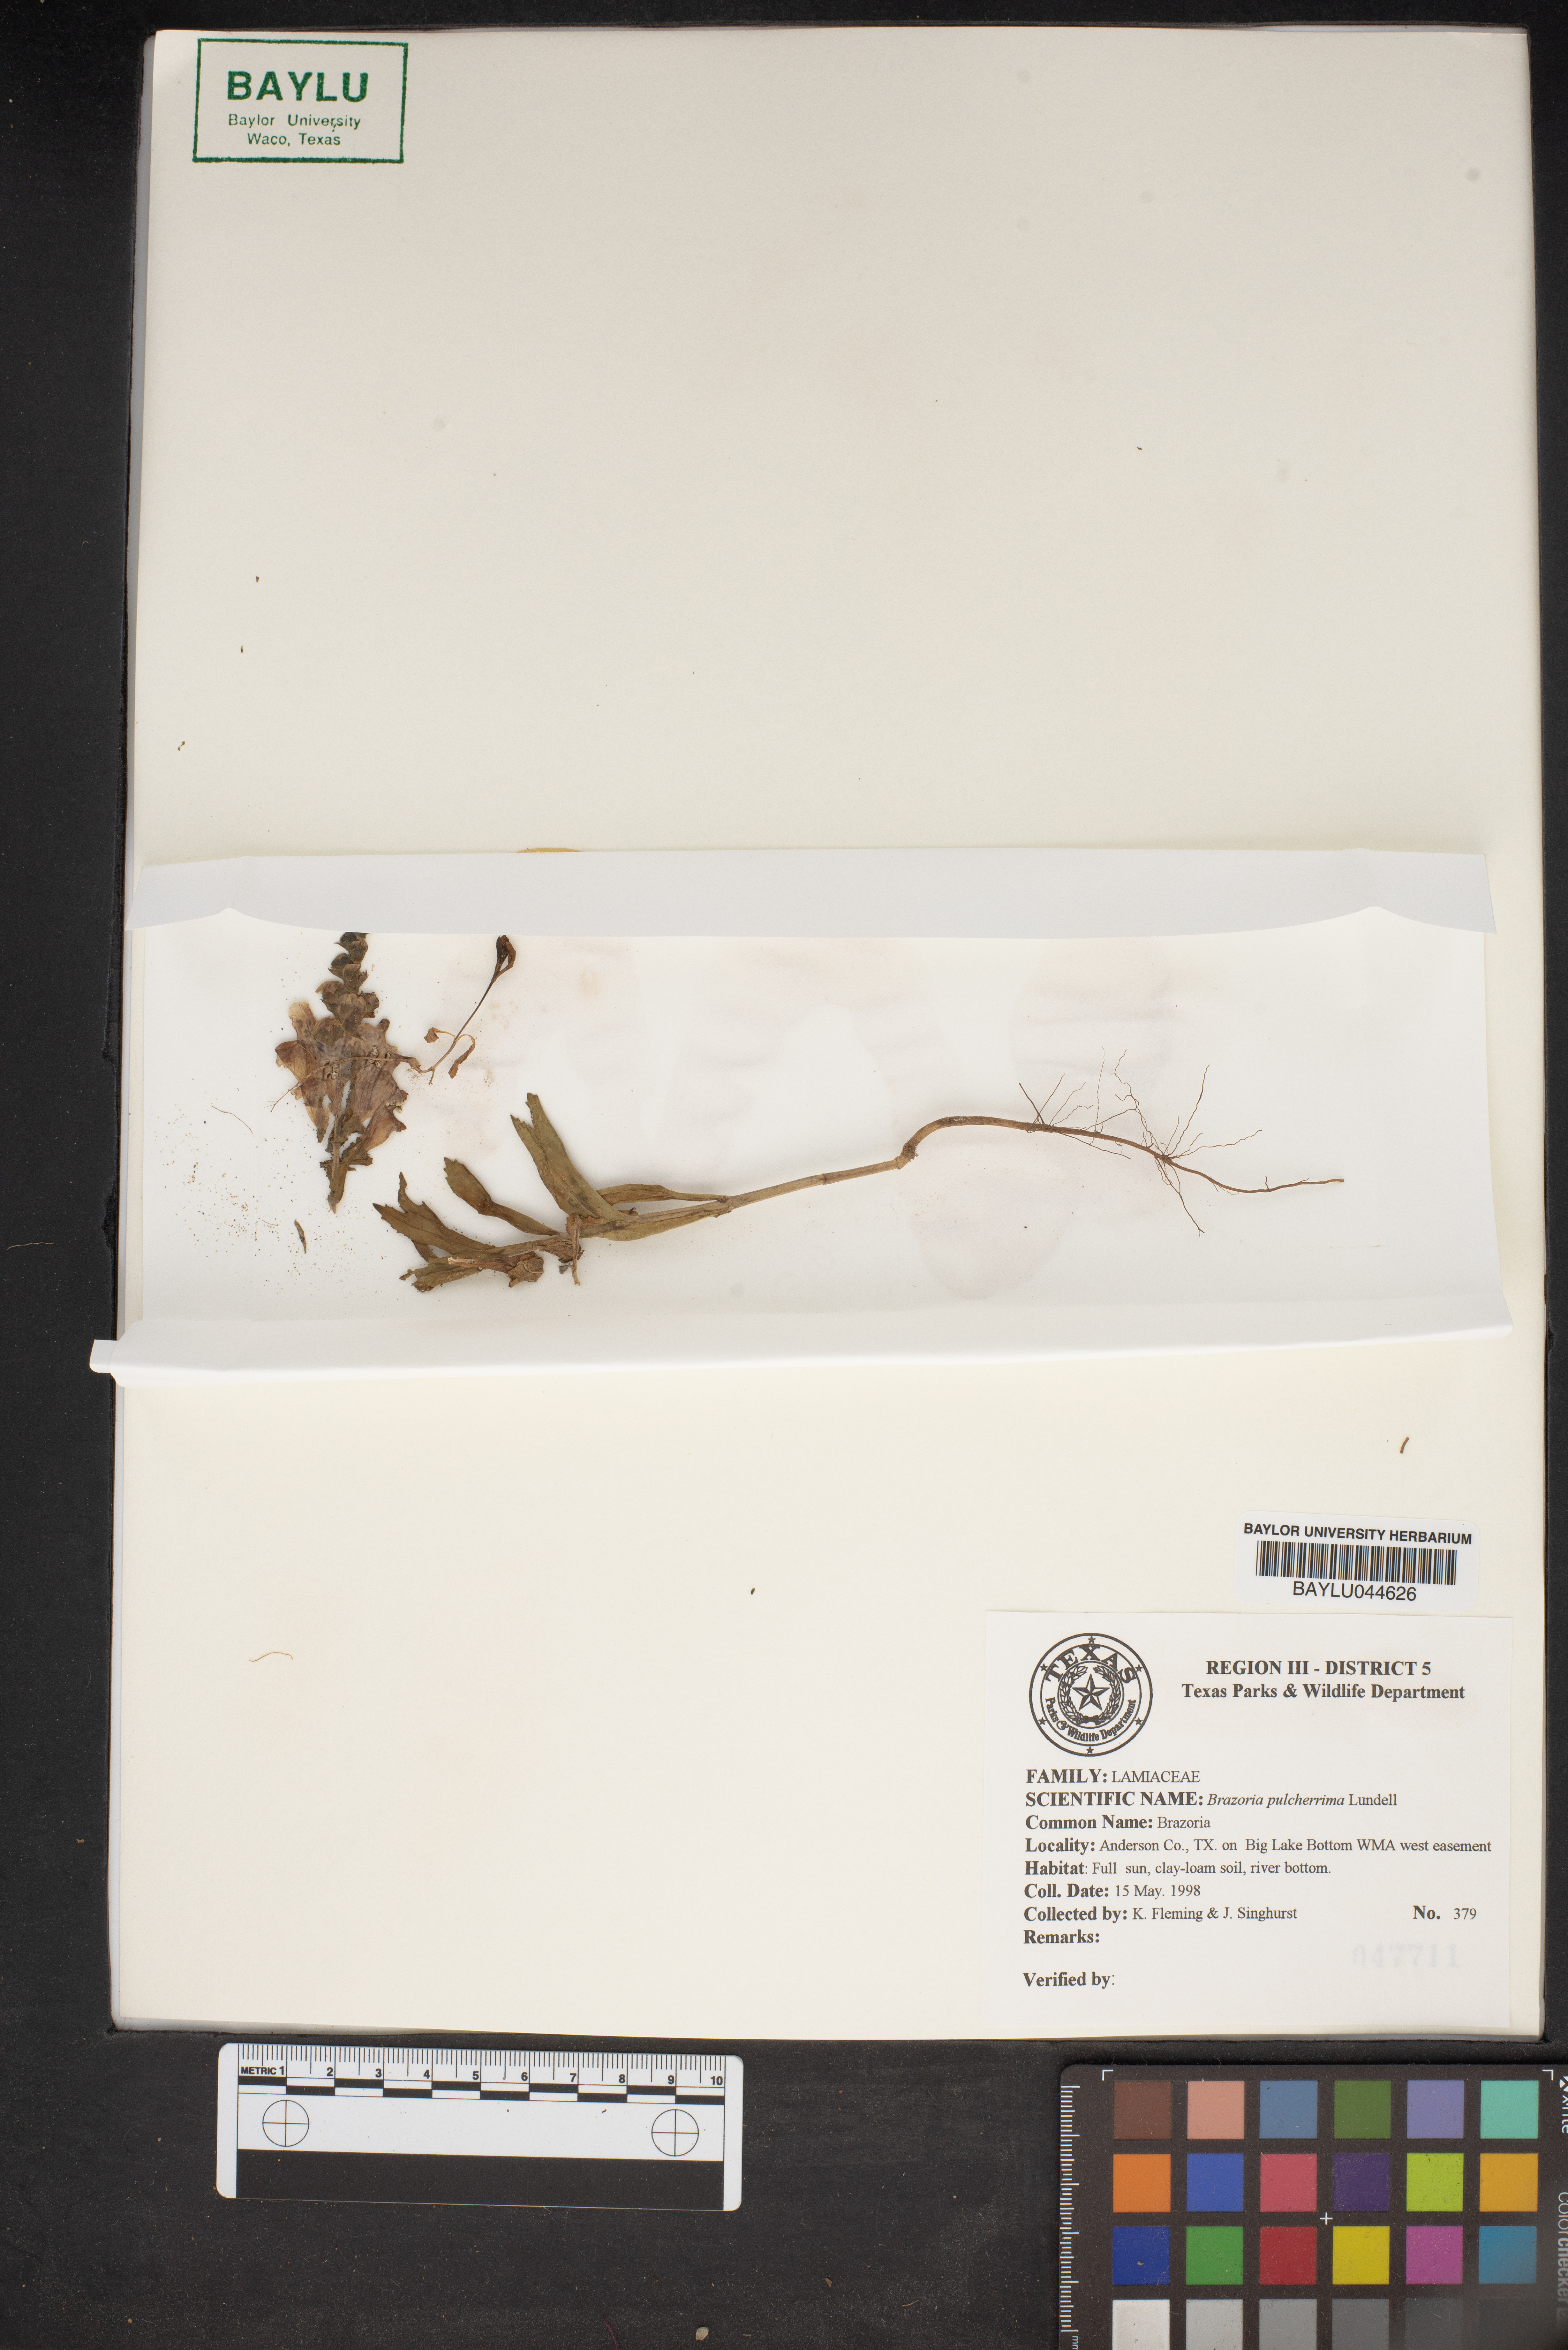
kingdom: Plantae
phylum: Tracheophyta
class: Magnoliopsida
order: Lamiales
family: Lamiaceae
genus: Brazoria
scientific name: Brazoria truncata
